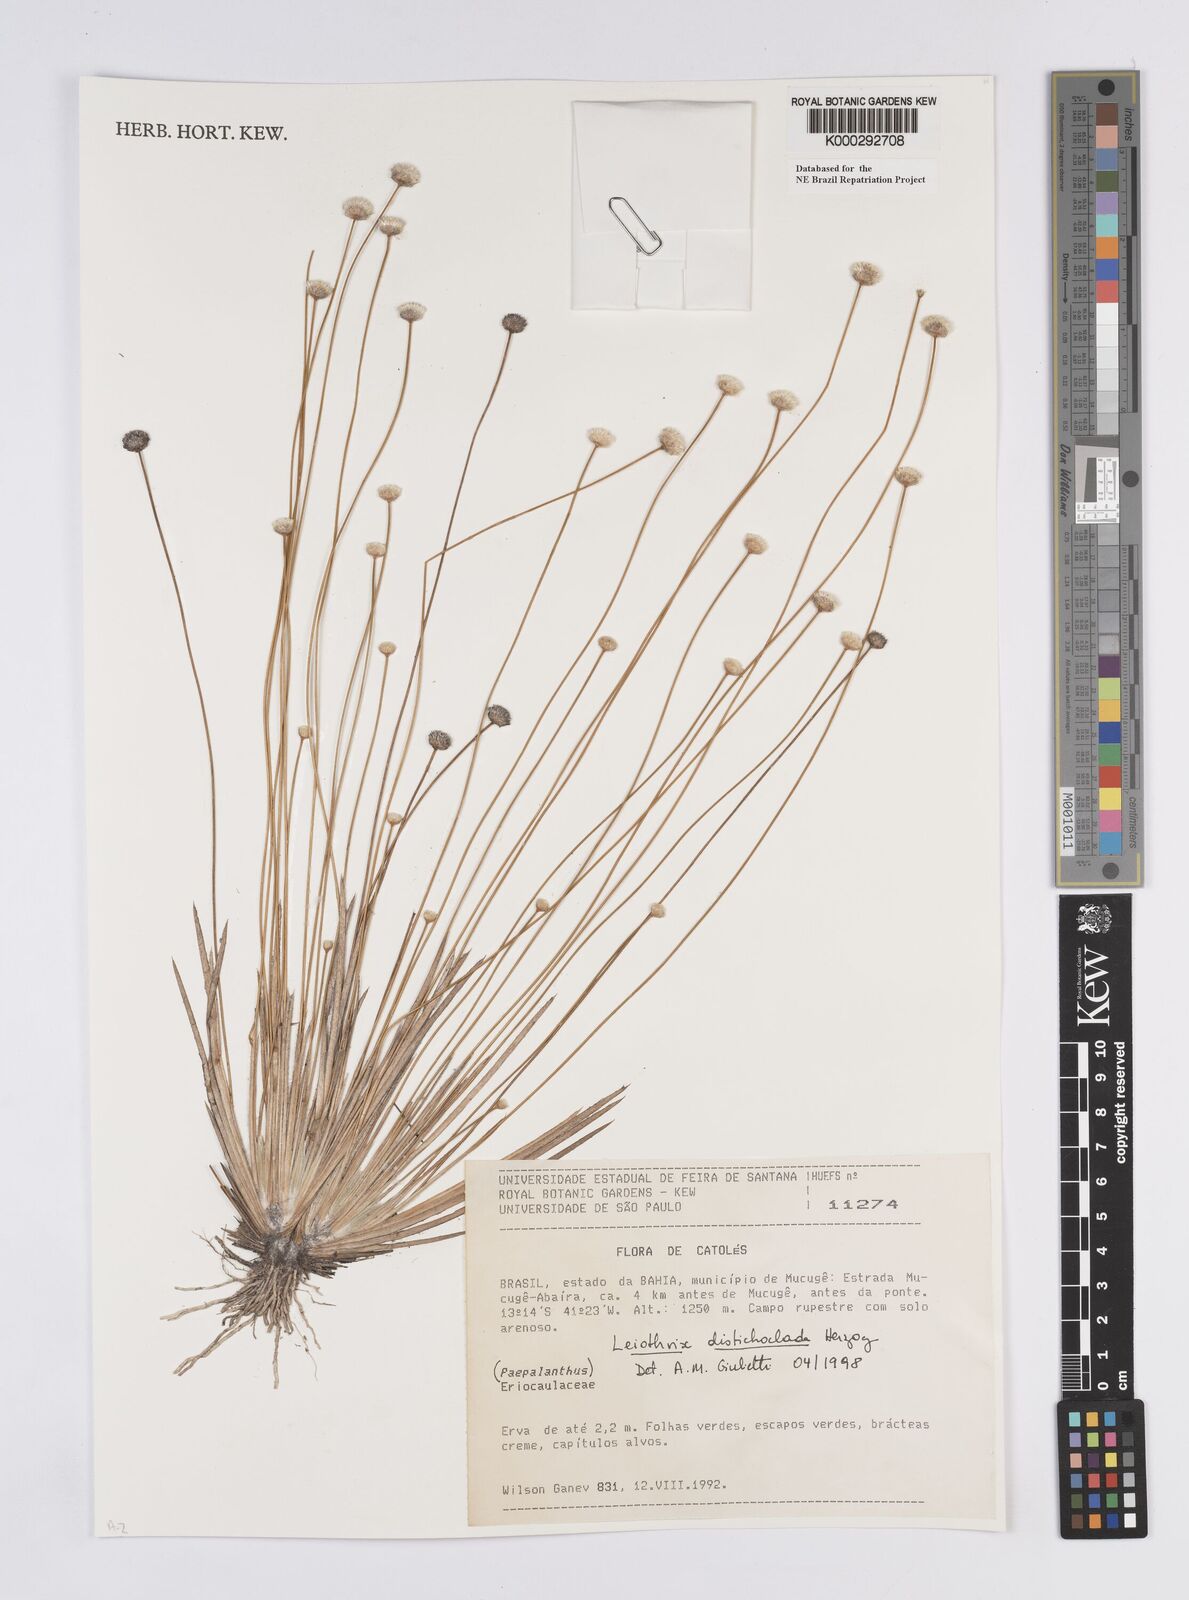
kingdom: Plantae
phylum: Tracheophyta
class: Liliopsida
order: Poales
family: Eriocaulaceae
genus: Leiothrix
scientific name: Leiothrix distichoclada
